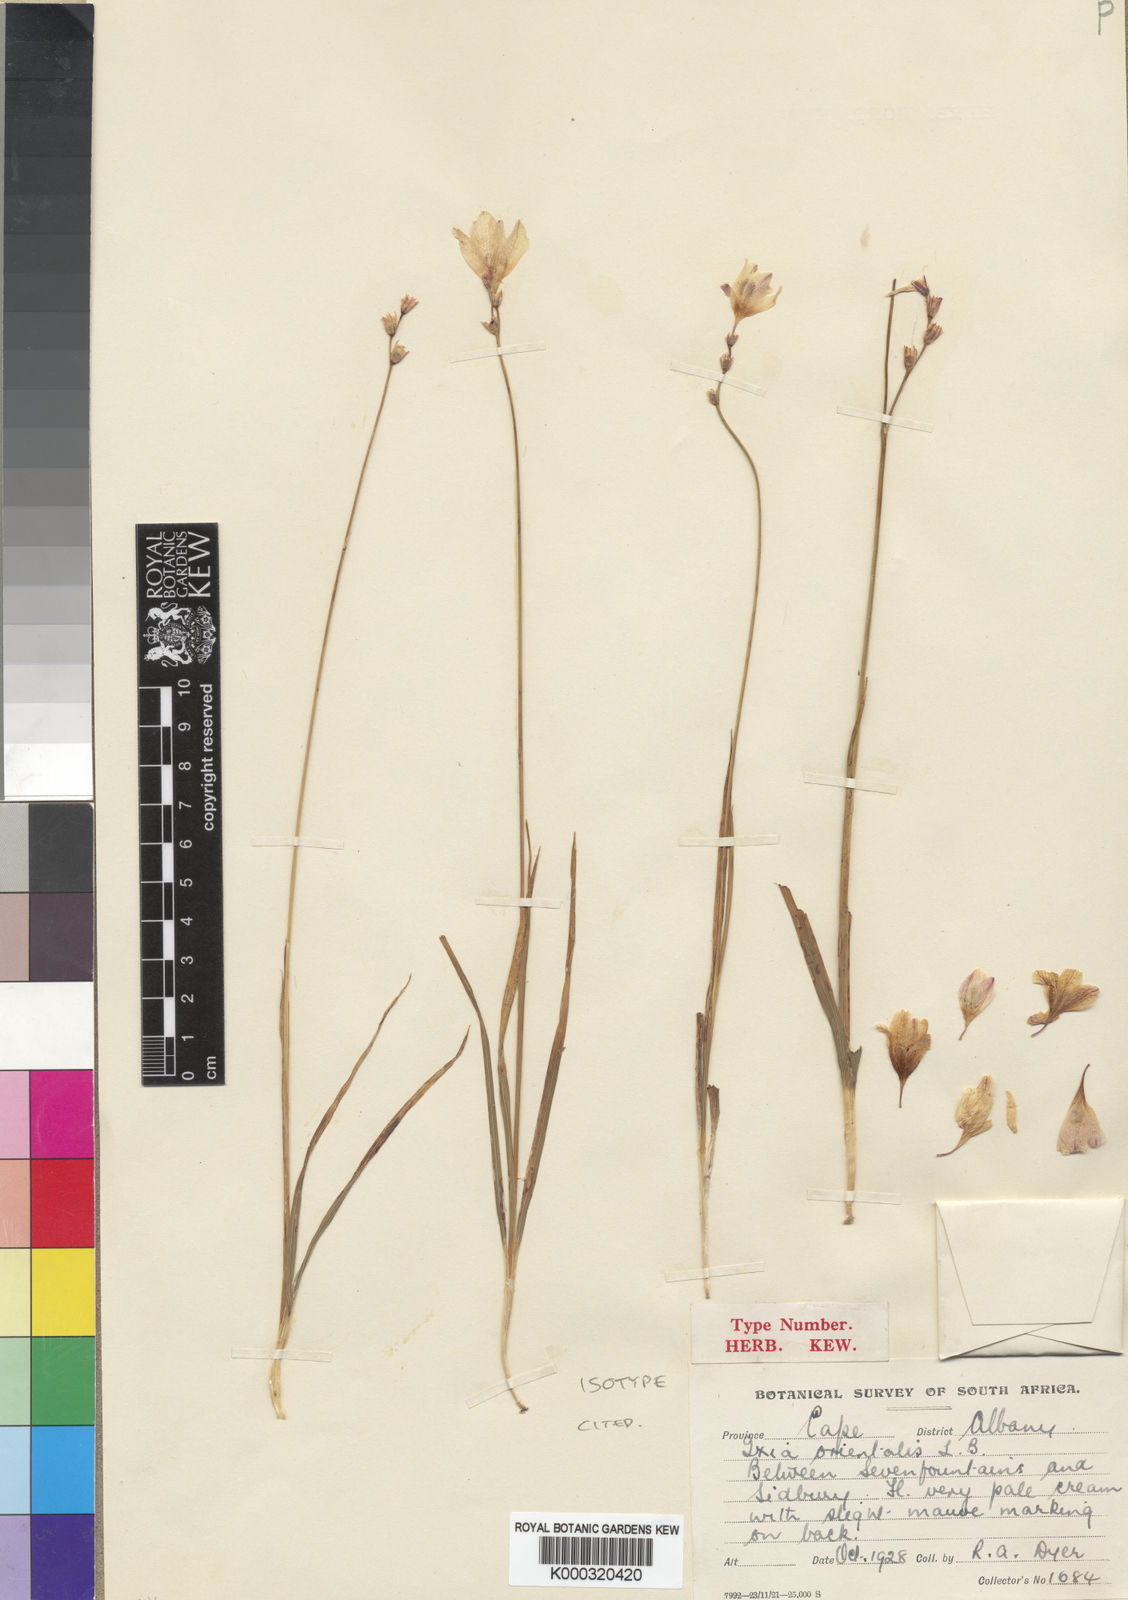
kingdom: Plantae
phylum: Tracheophyta
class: Liliopsida
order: Asparagales
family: Iridaceae
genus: Ixia
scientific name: Ixia orientalis
